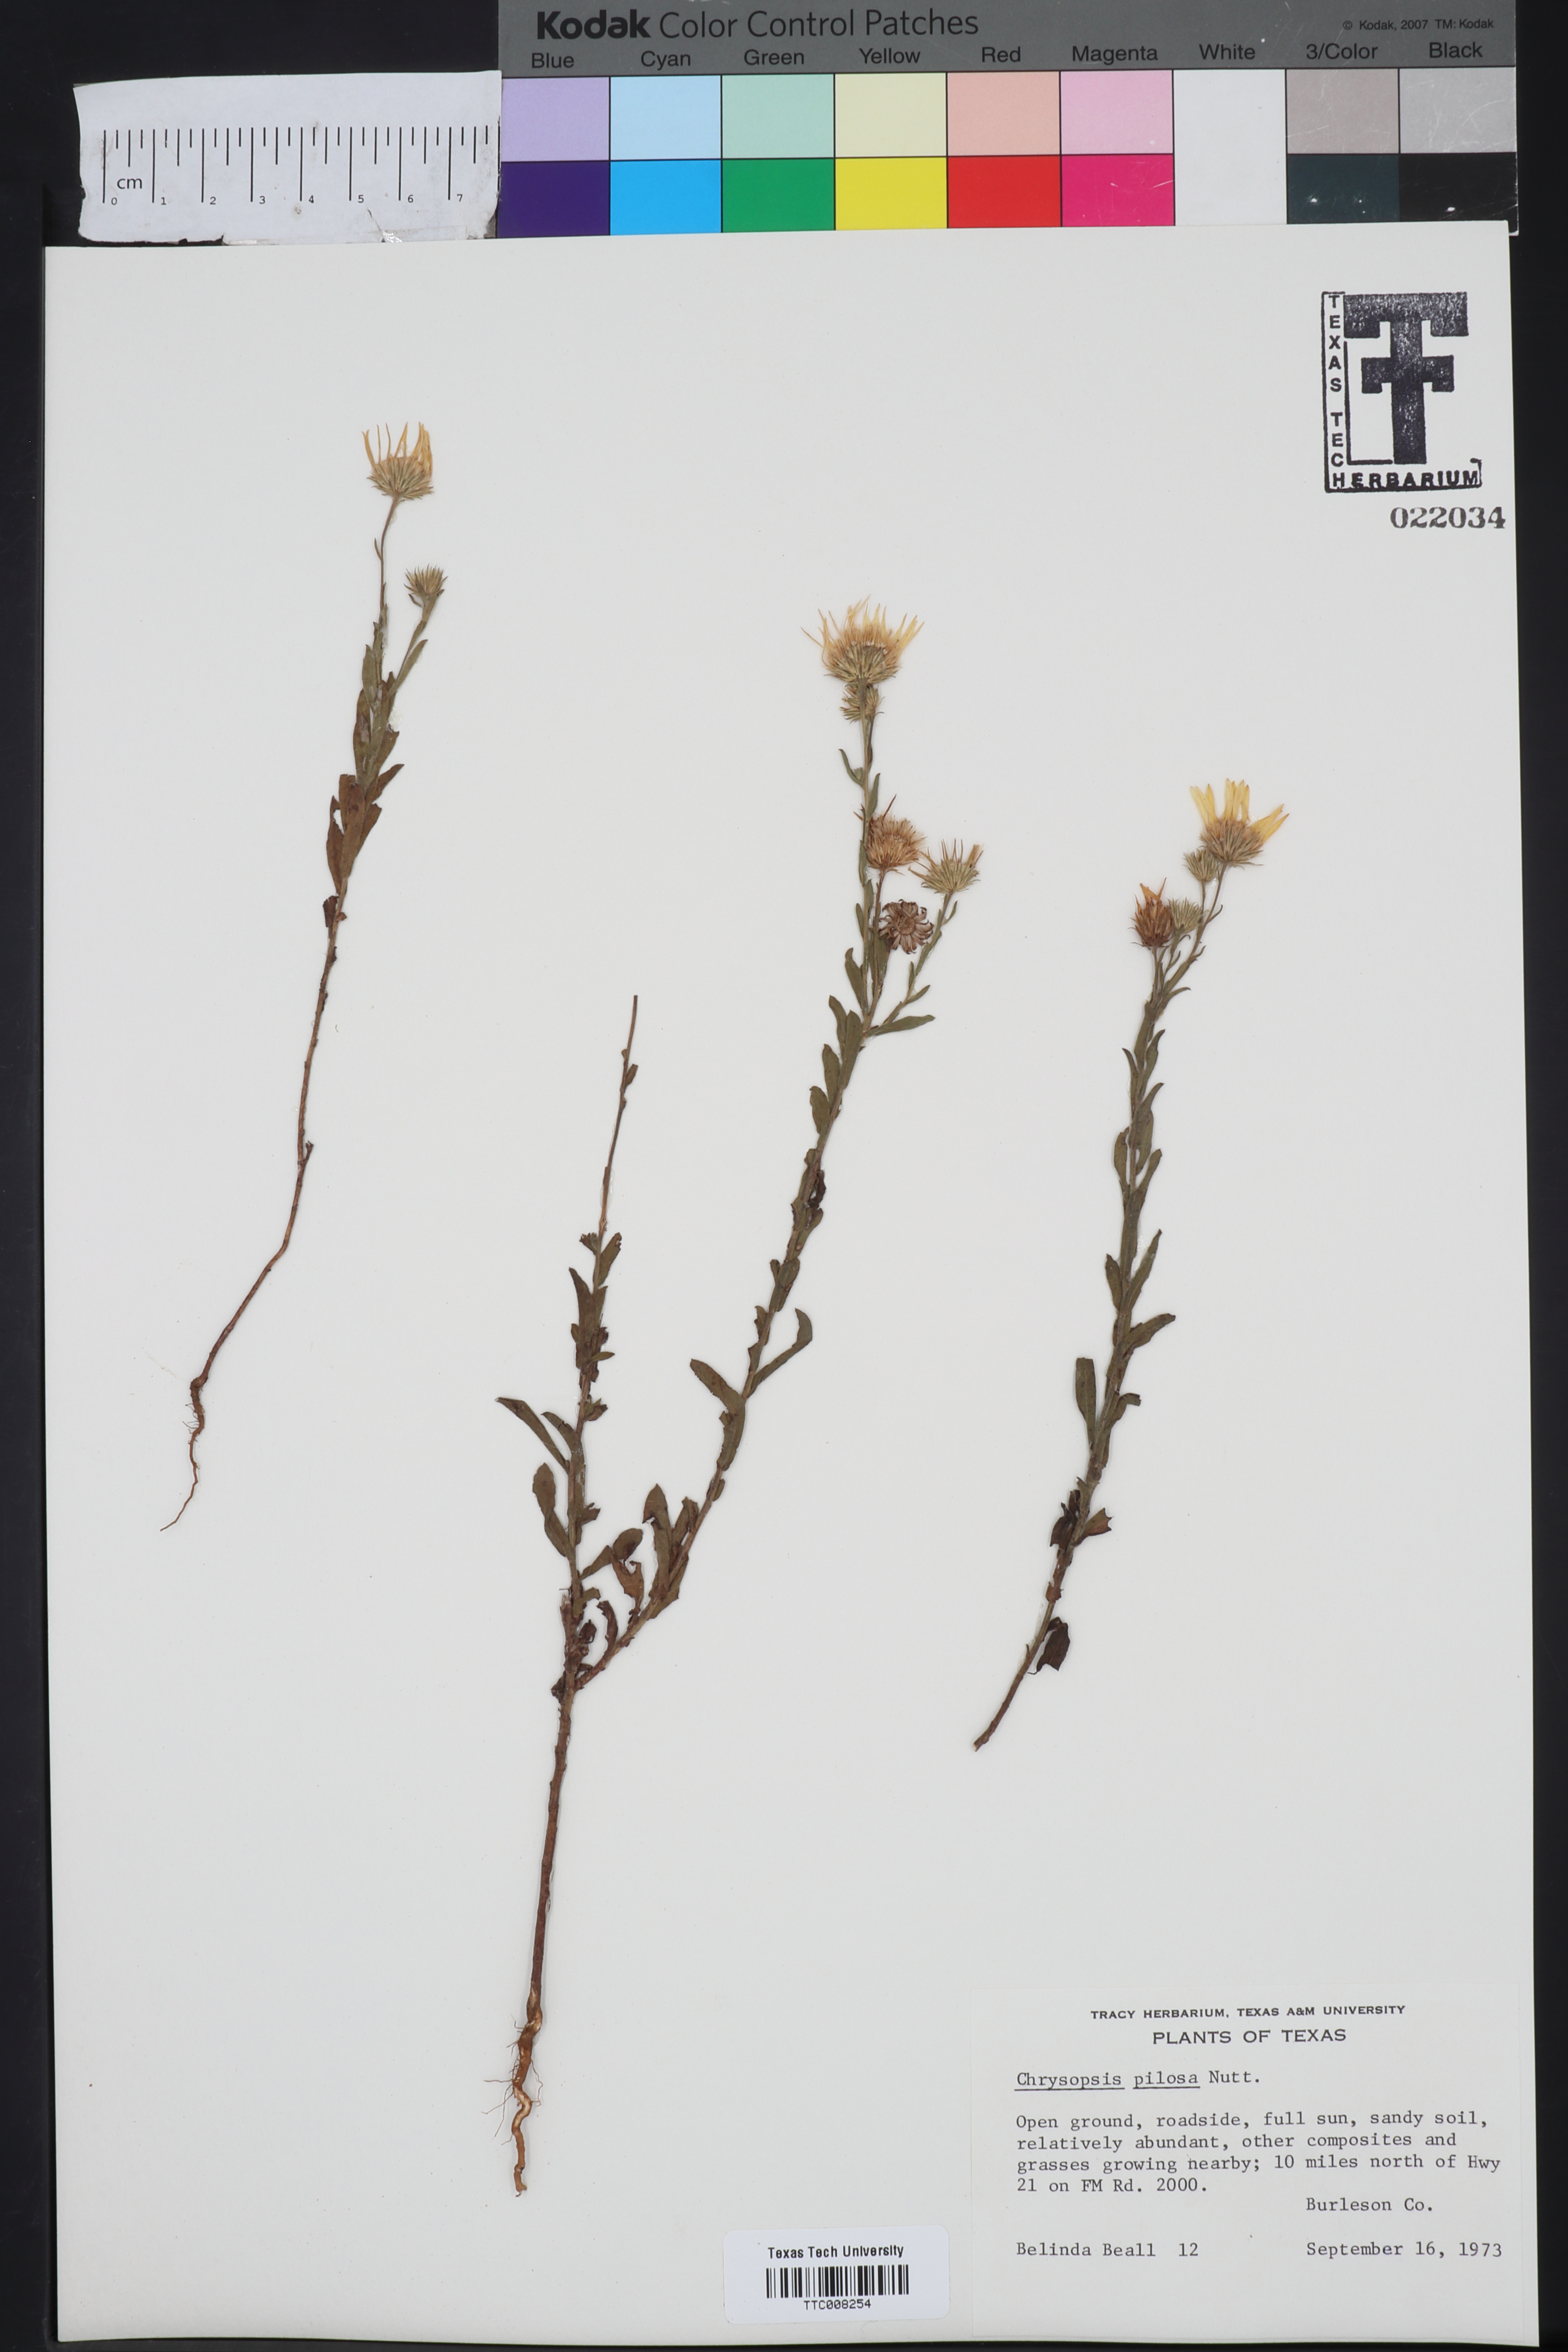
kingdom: Plantae
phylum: Tracheophyta
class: Magnoliopsida
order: Asterales
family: Asteraceae
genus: Bradburia
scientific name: Bradburia pilosa
